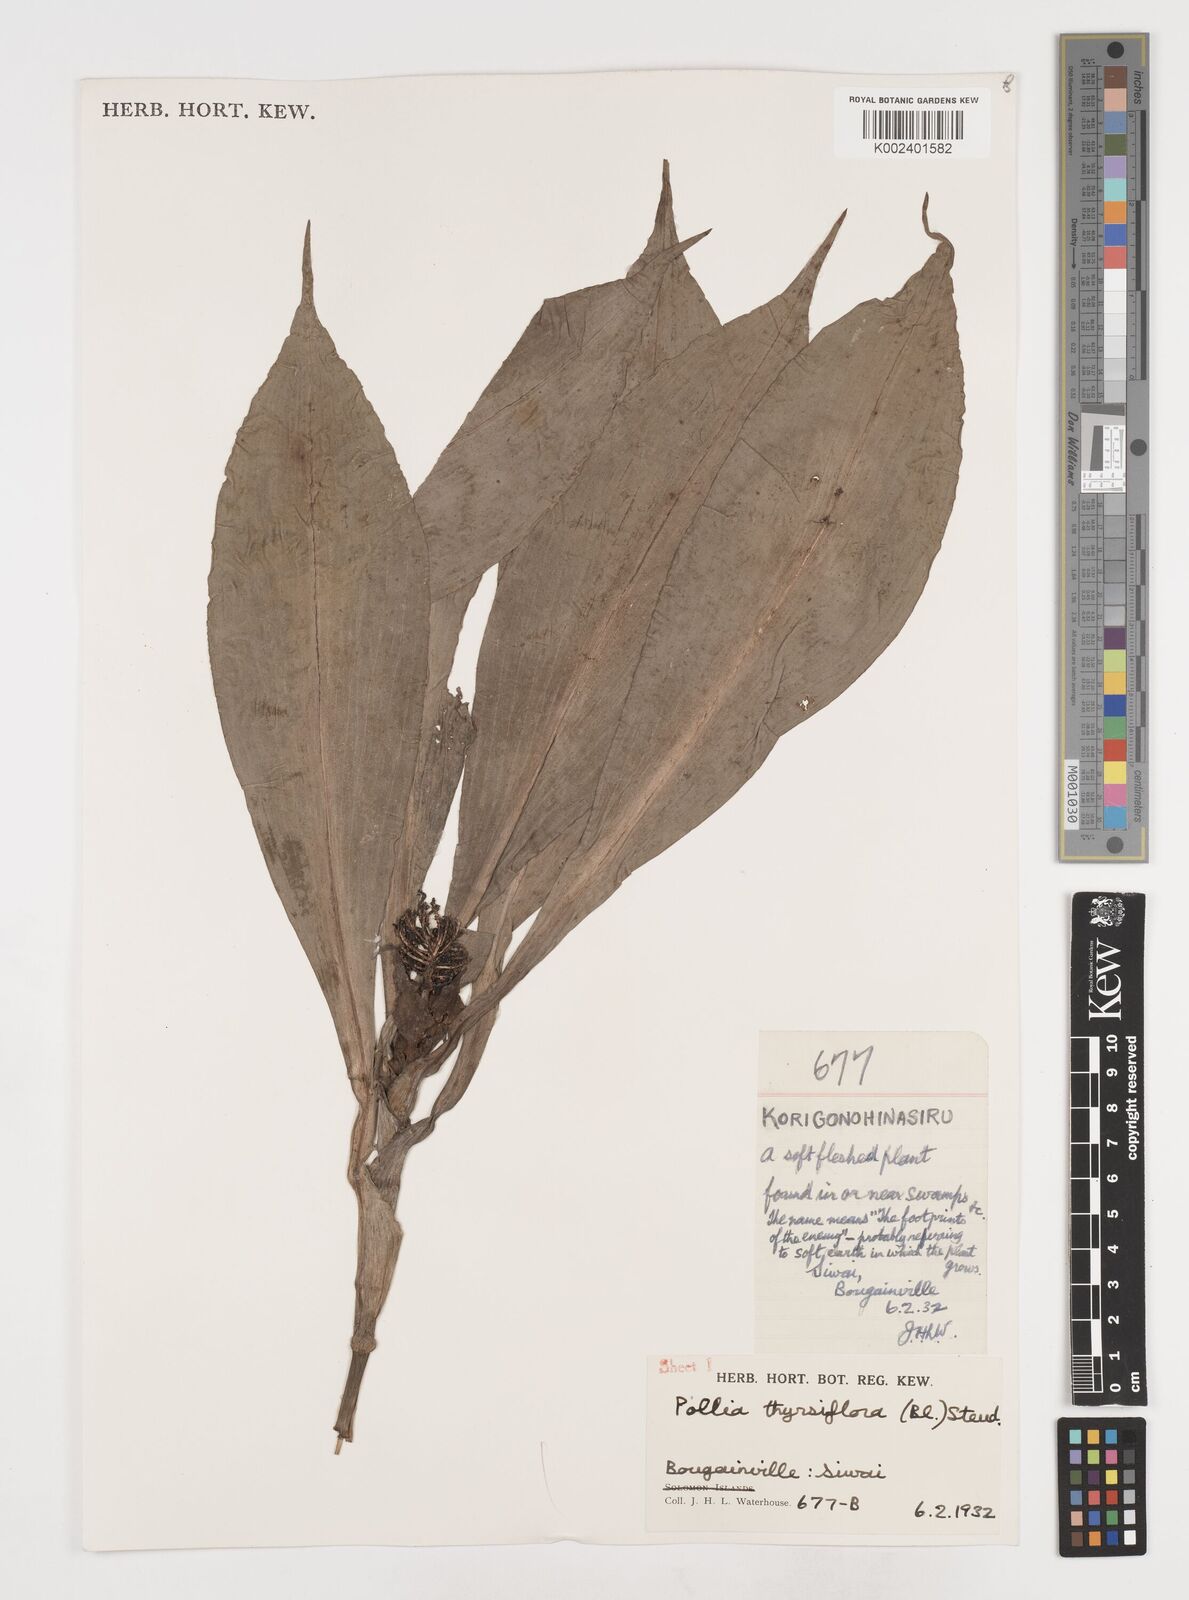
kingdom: Plantae
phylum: Tracheophyta
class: Liliopsida
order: Commelinales
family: Commelinaceae
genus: Pollia
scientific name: Pollia thyrsiflora
